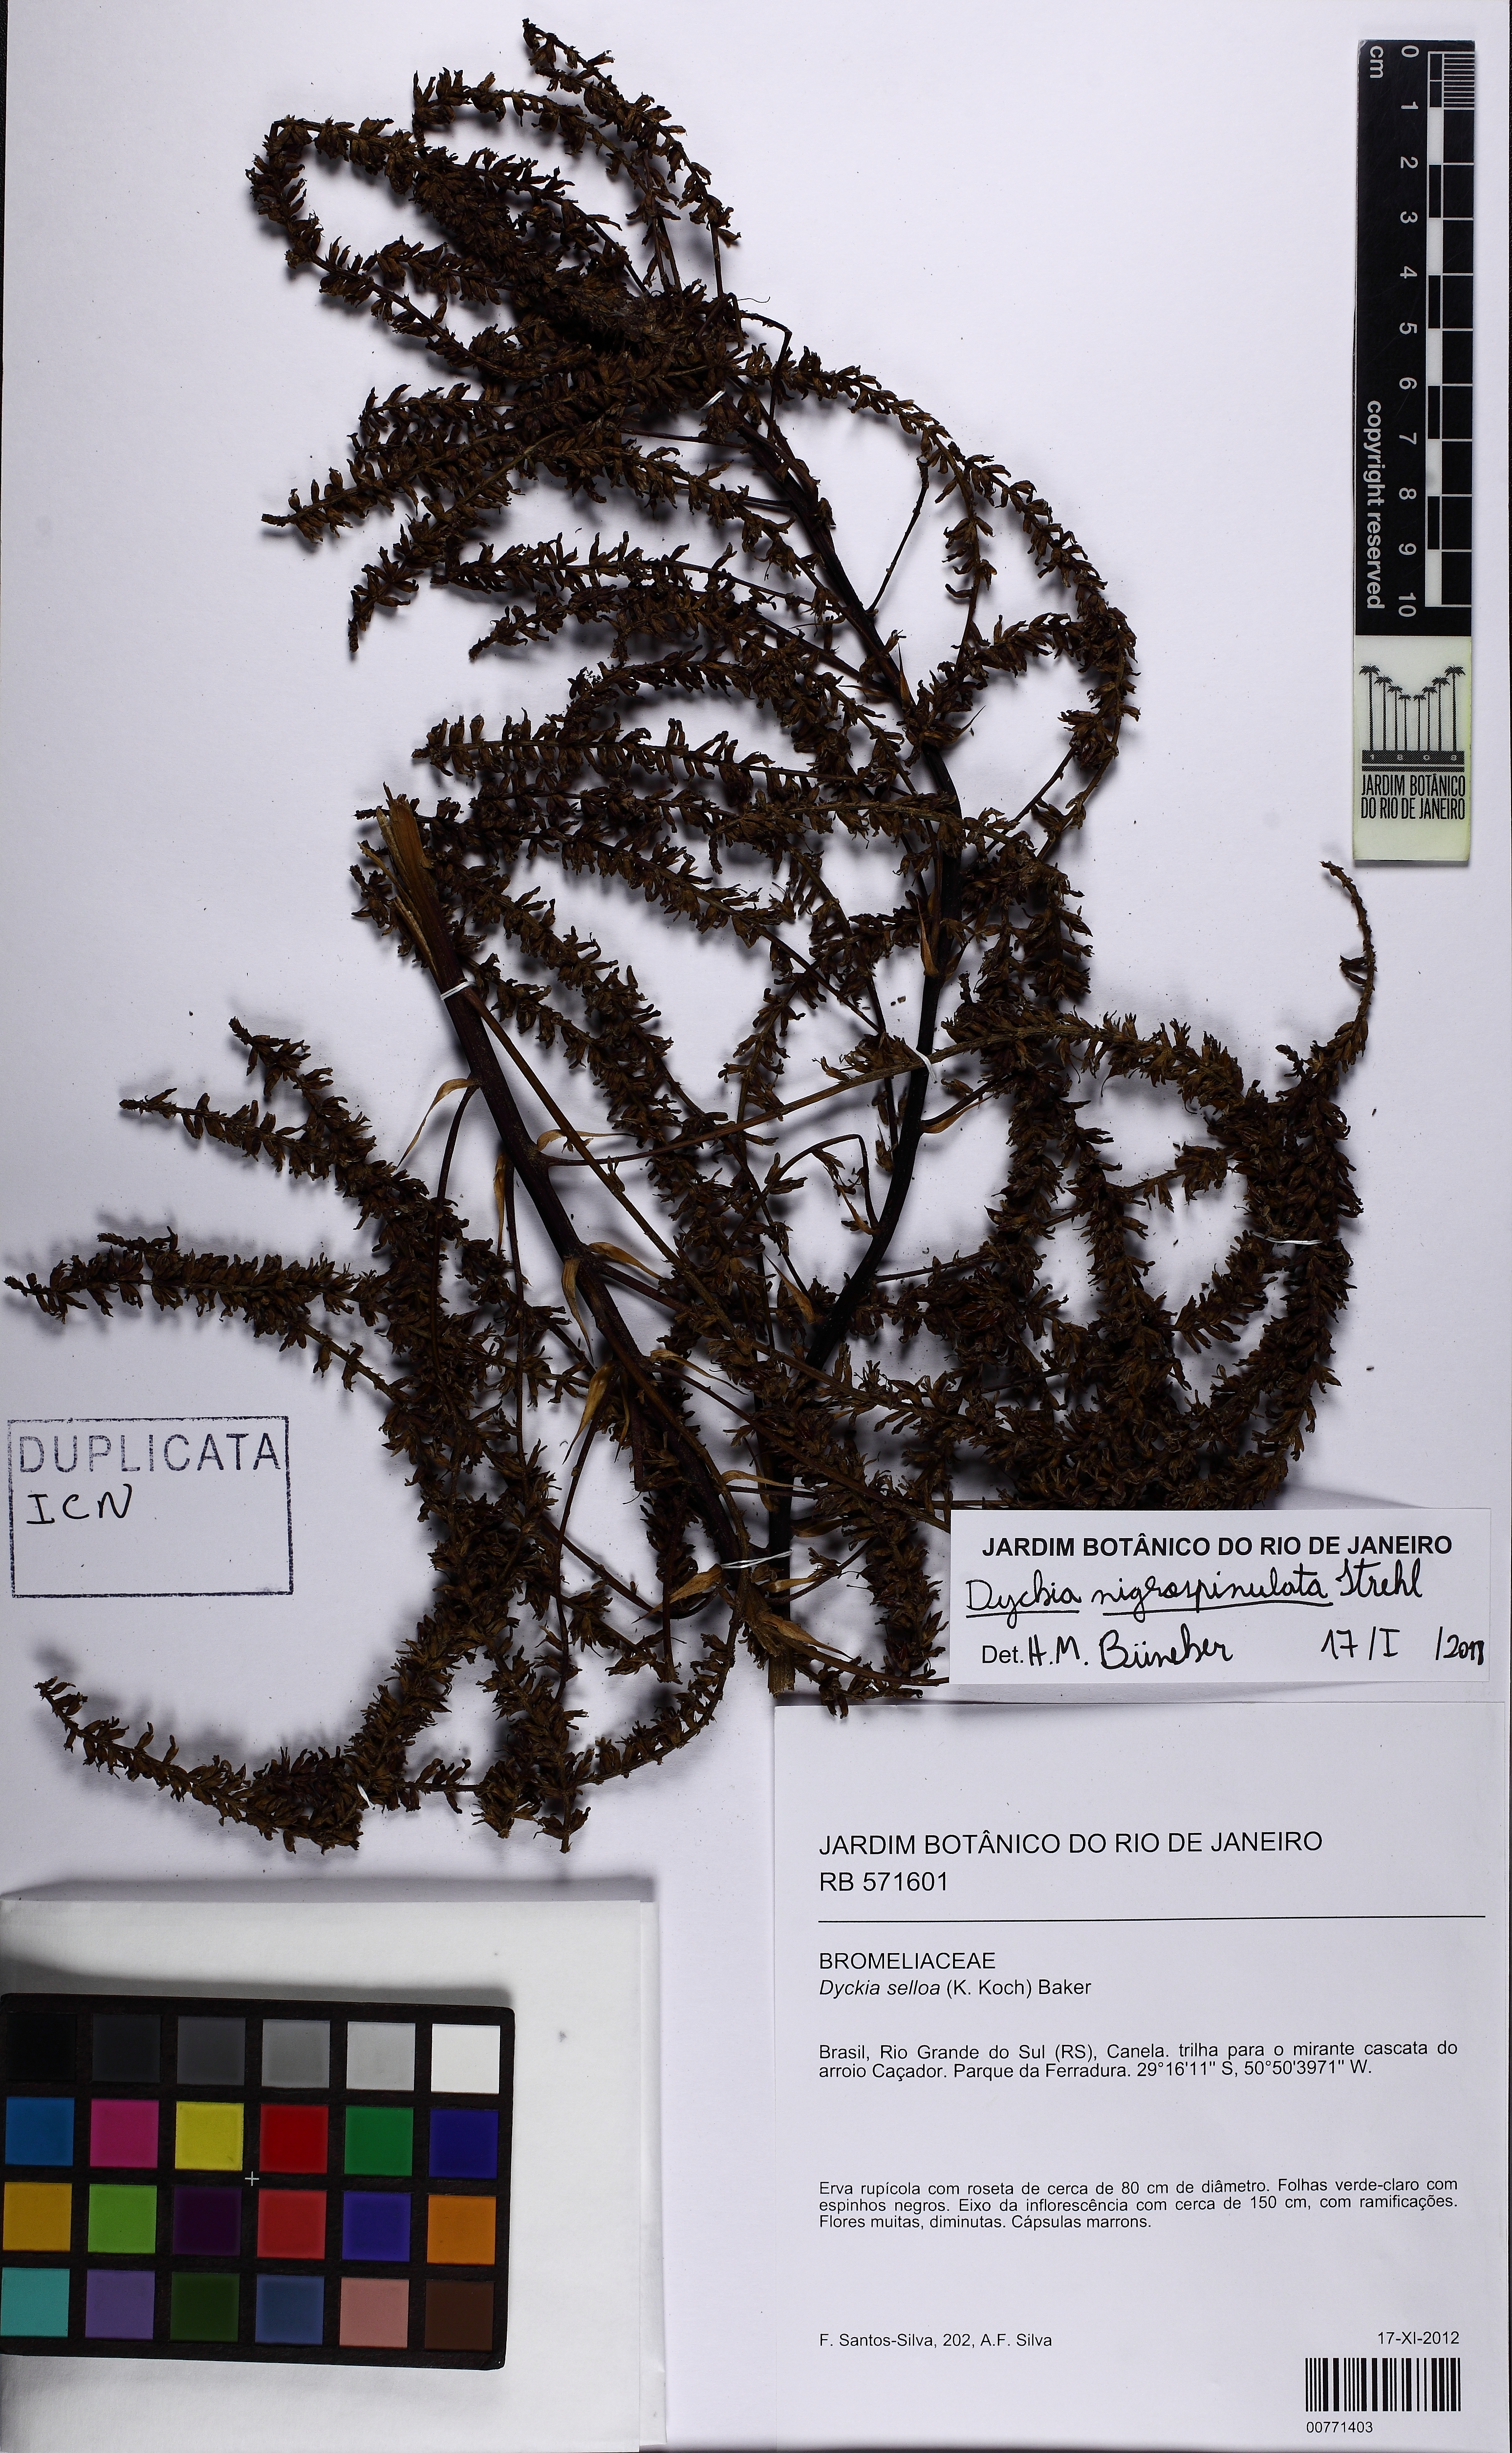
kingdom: Plantae
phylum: Tracheophyta
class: Liliopsida
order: Poales
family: Bromeliaceae
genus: Dyckia
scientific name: Dyckia nigrospinulata
